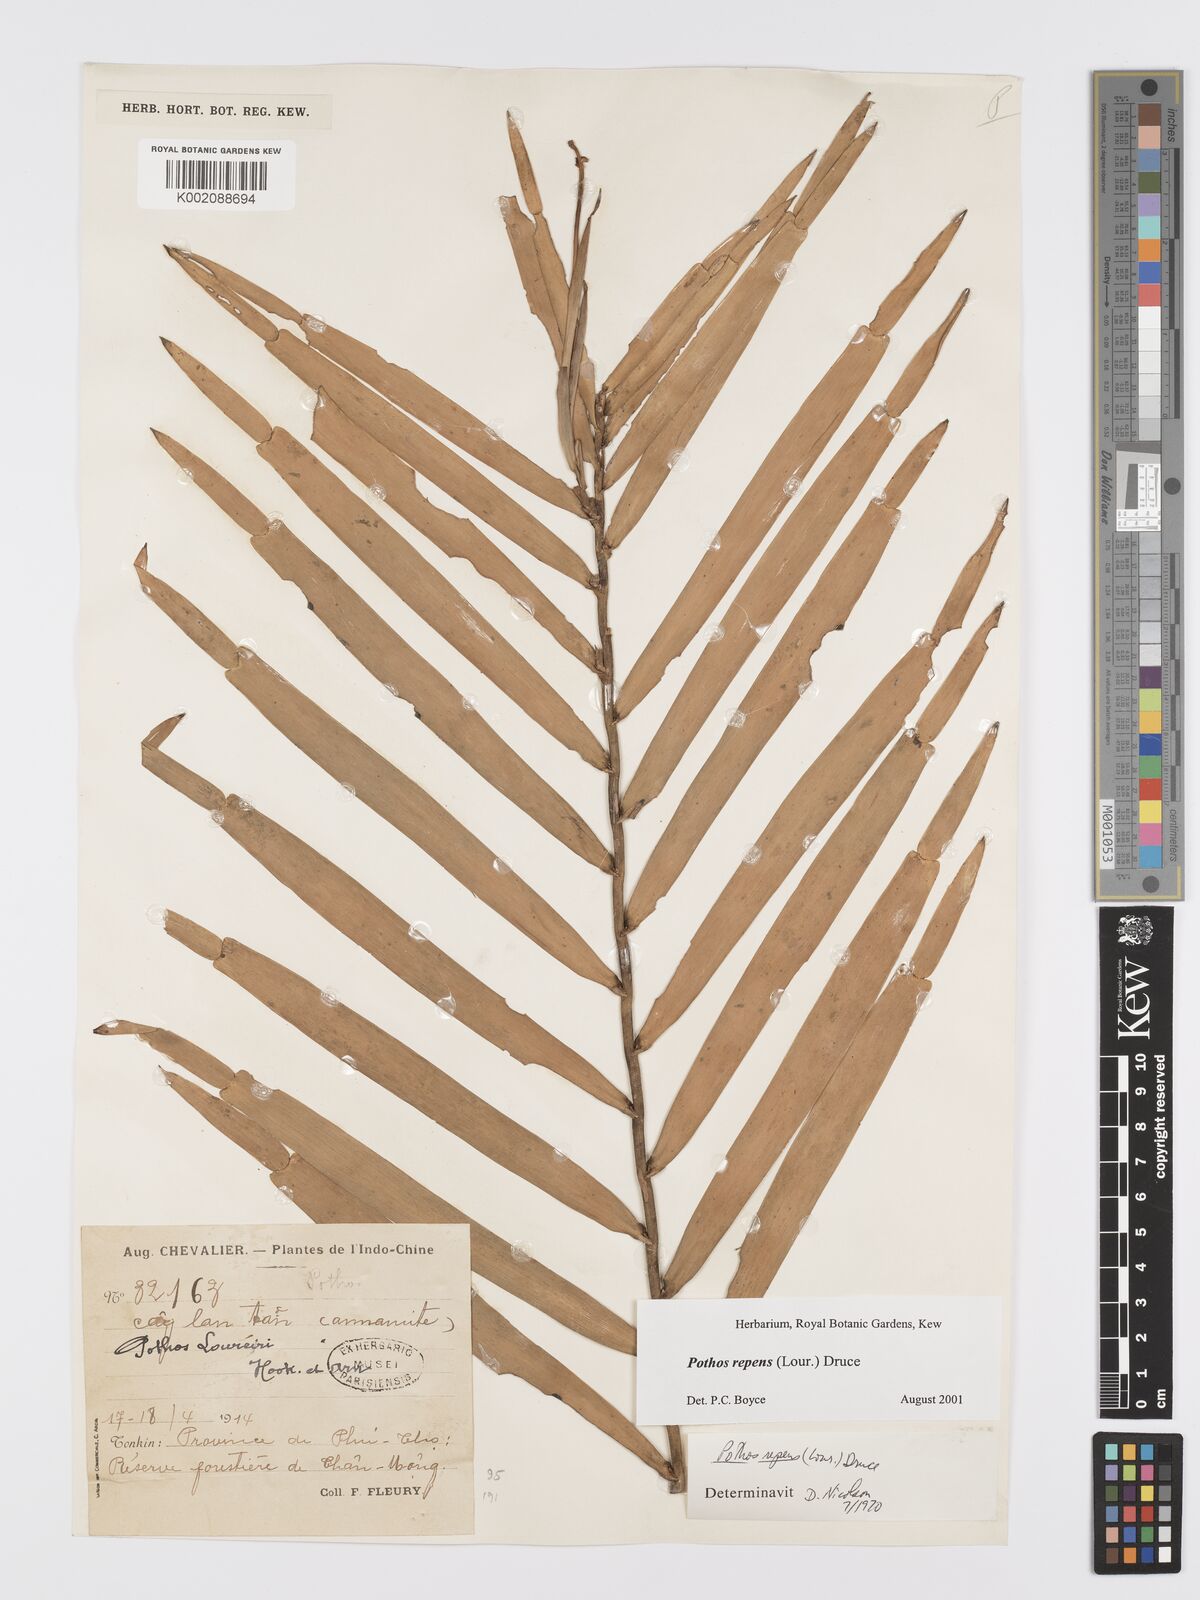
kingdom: Plantae
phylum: Tracheophyta
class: Liliopsida
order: Alismatales
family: Araceae
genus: Pothos
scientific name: Pothos repens
